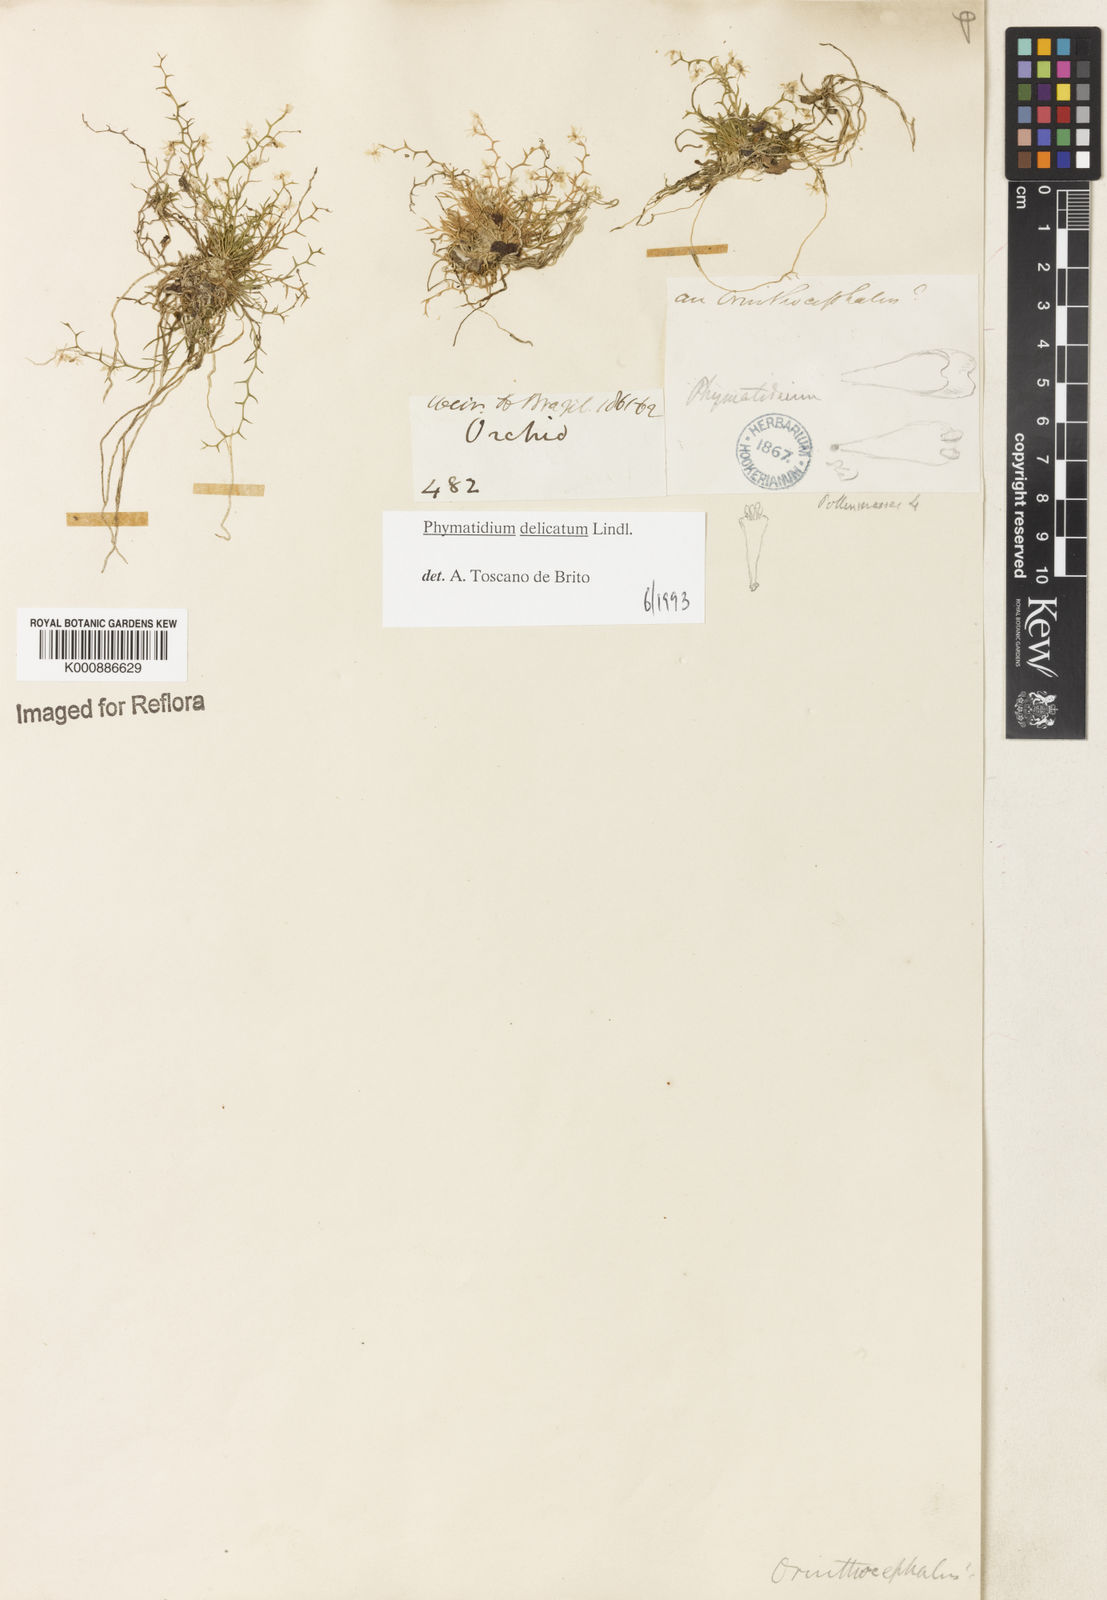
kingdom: Plantae
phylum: Tracheophyta
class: Liliopsida
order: Asparagales
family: Orchidaceae
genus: Phymatidium
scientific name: Phymatidium
